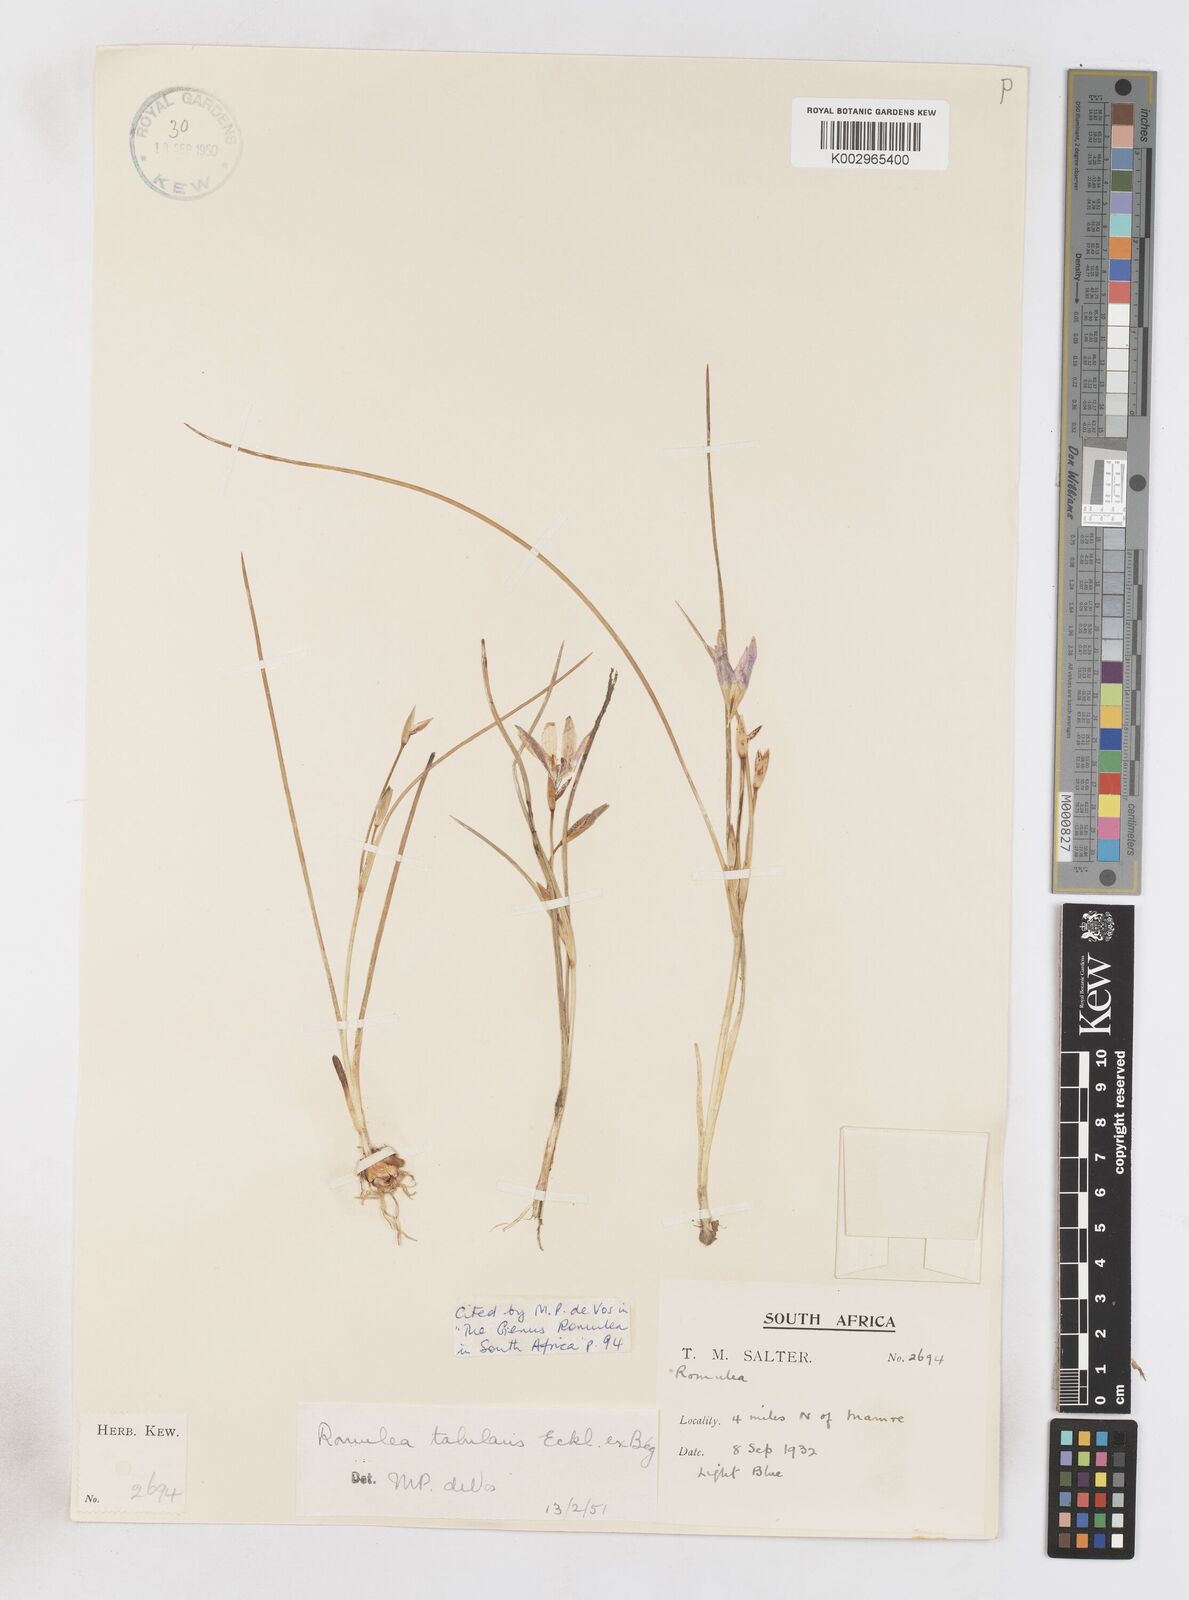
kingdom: Plantae
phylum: Tracheophyta
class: Liliopsida
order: Asparagales
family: Iridaceae
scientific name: Iridaceae
